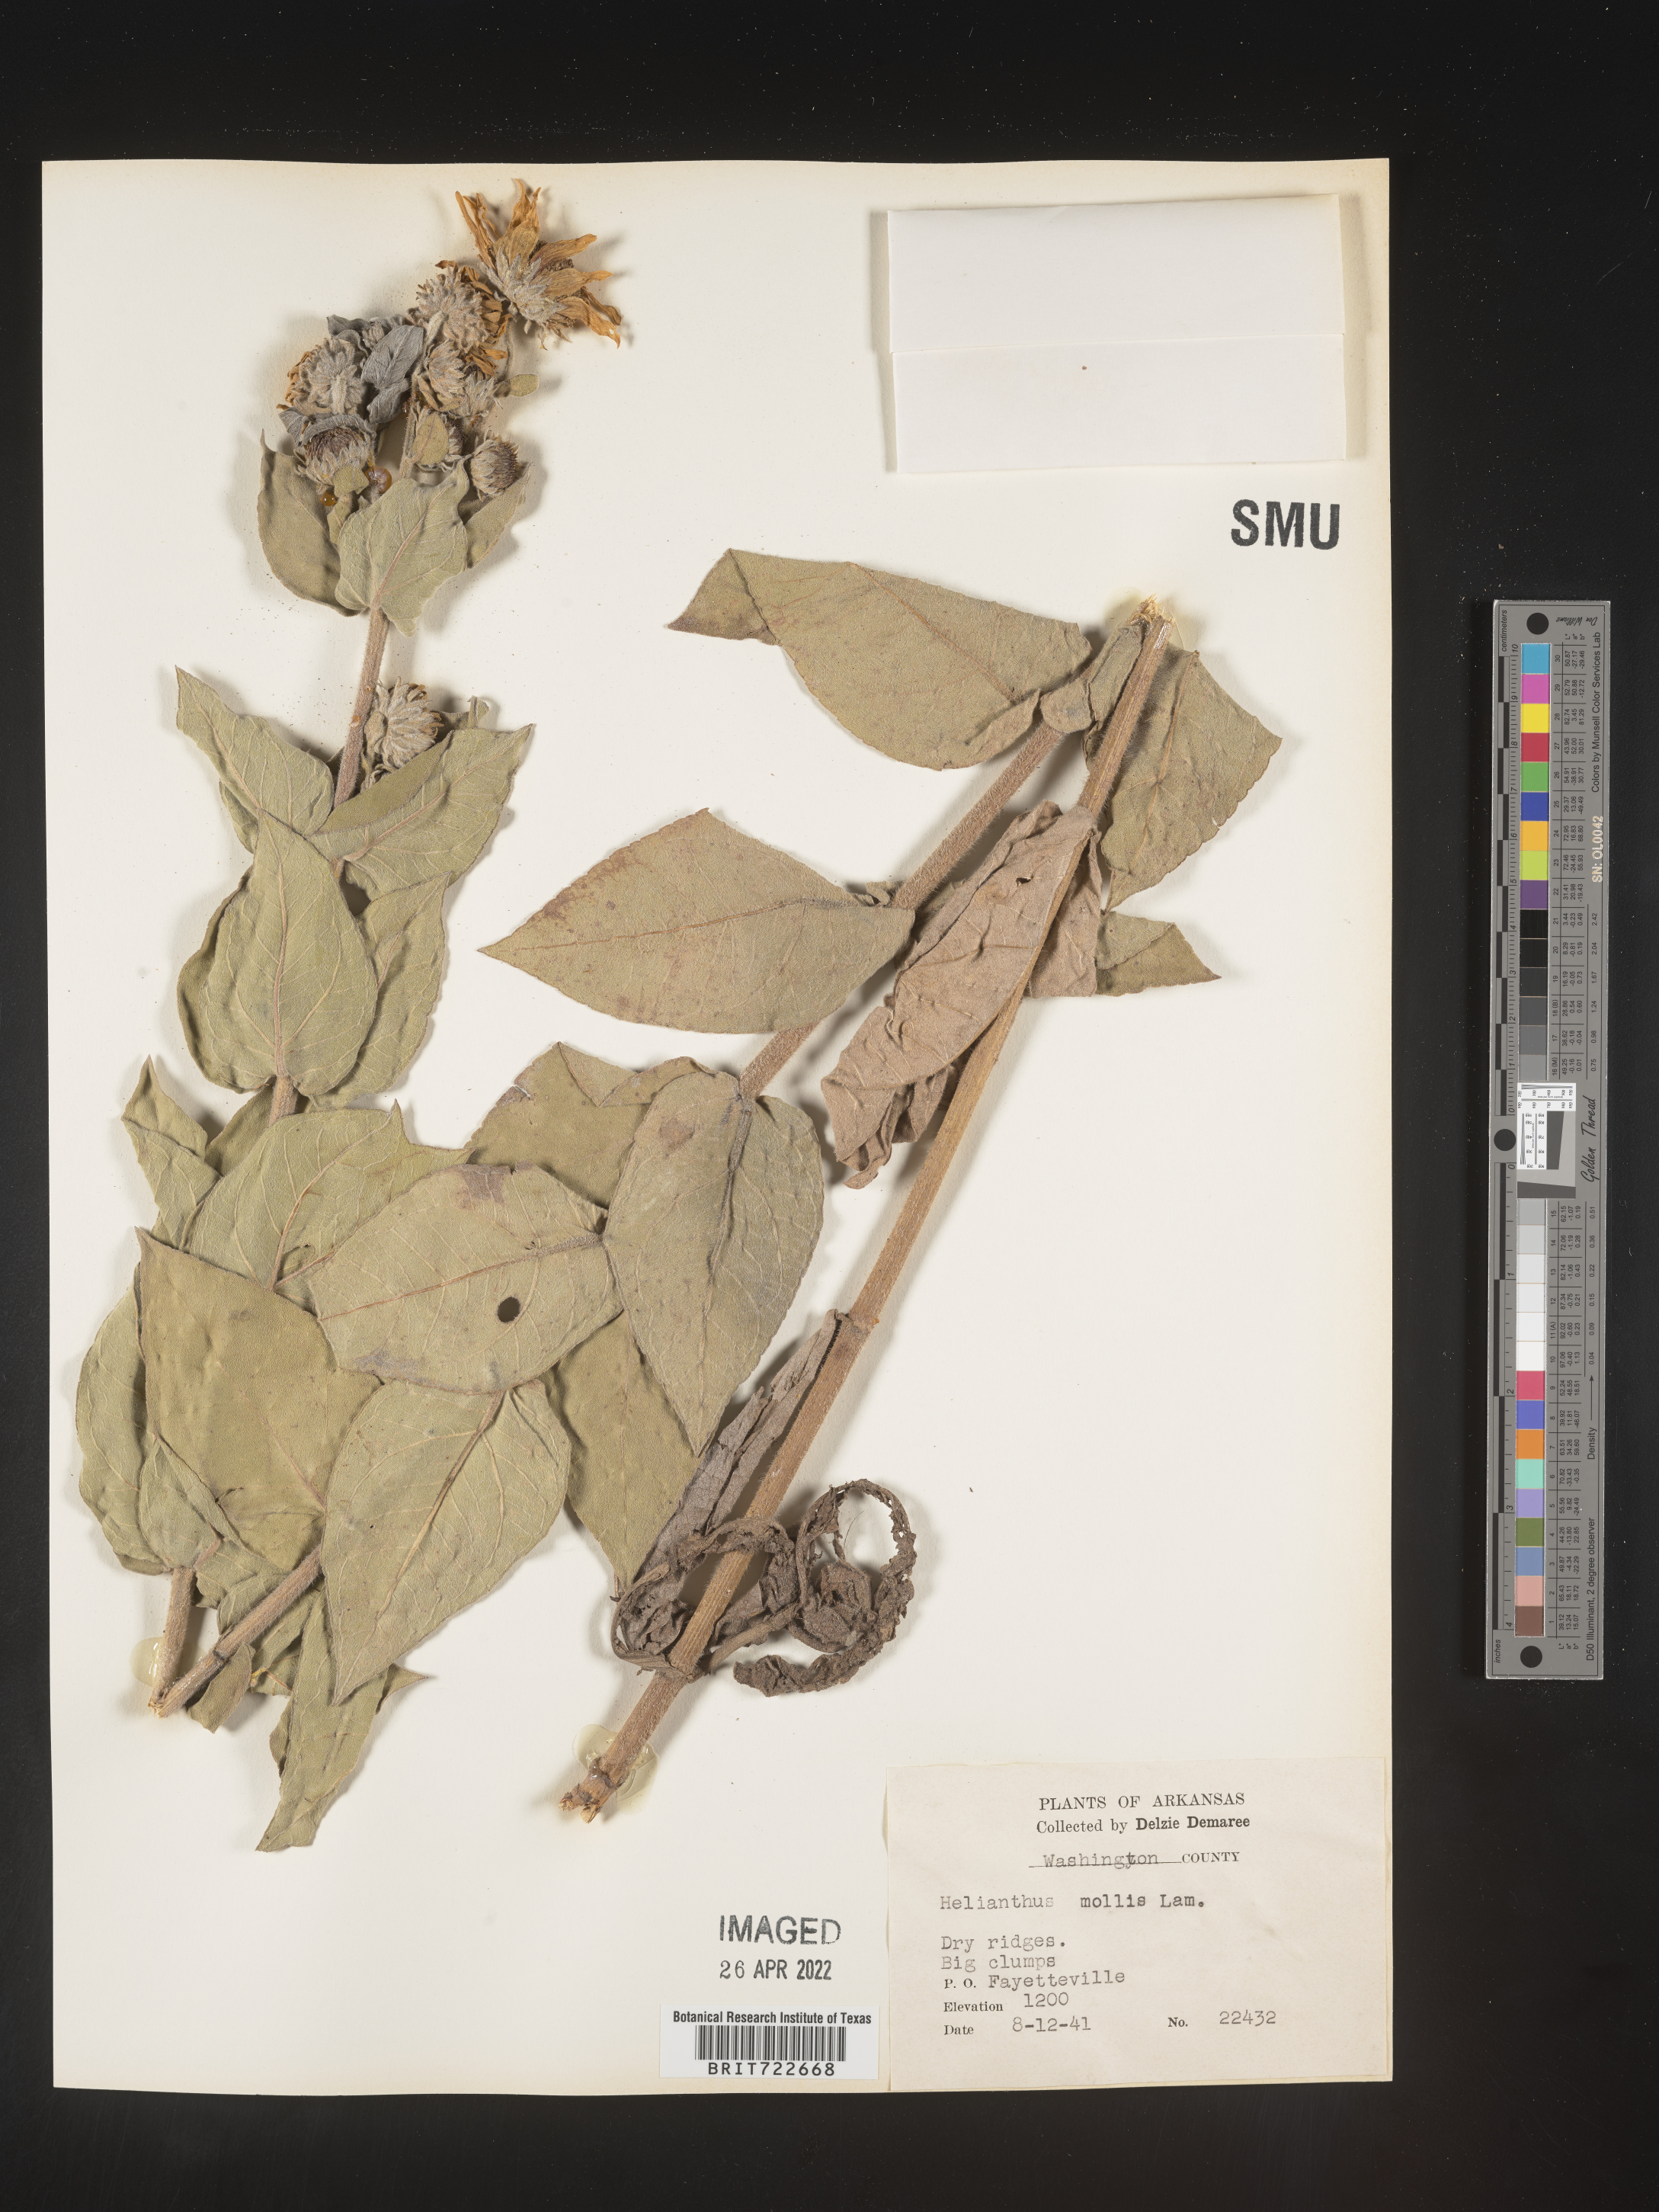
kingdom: Plantae
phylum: Tracheophyta
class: Magnoliopsida
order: Asterales
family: Asteraceae
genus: Helianthus
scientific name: Helianthus mollis
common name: Ashy sunflower
